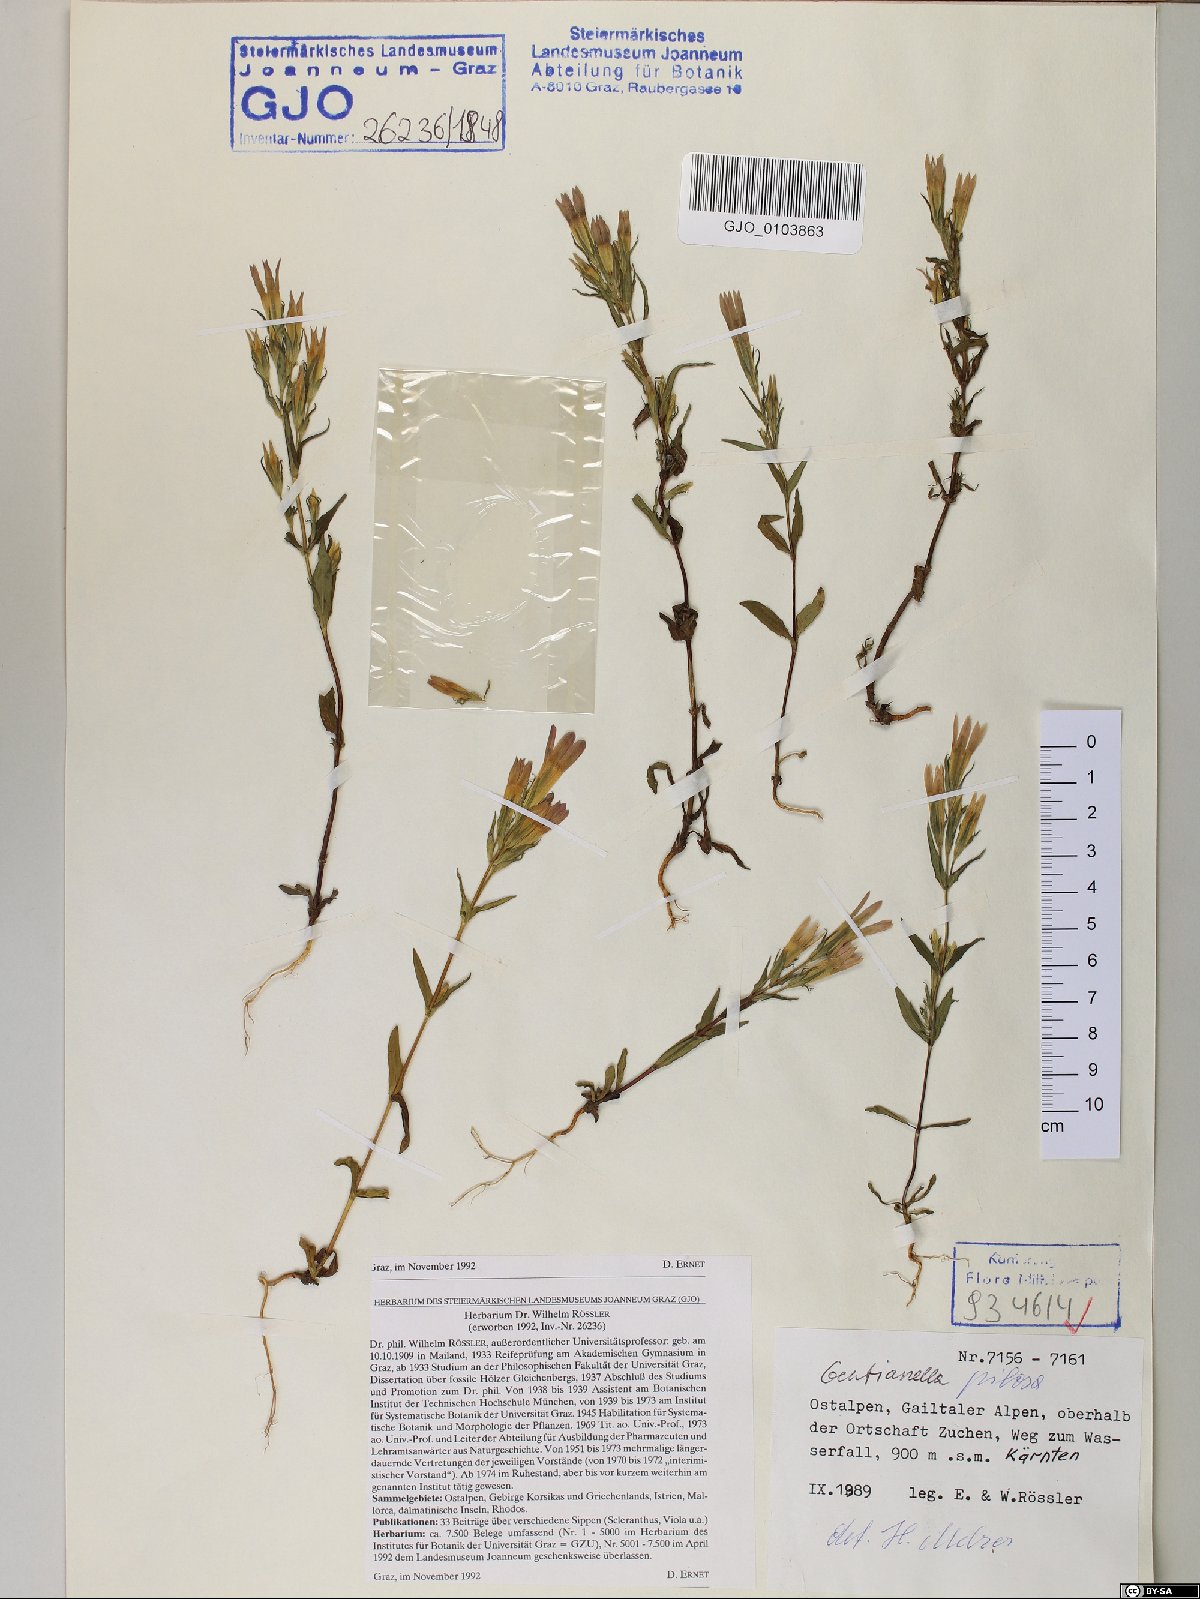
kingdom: Plantae
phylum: Tracheophyta
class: Magnoliopsida
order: Gentianales
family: Gentianaceae
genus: Gentianella
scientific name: Gentianella pilosa
